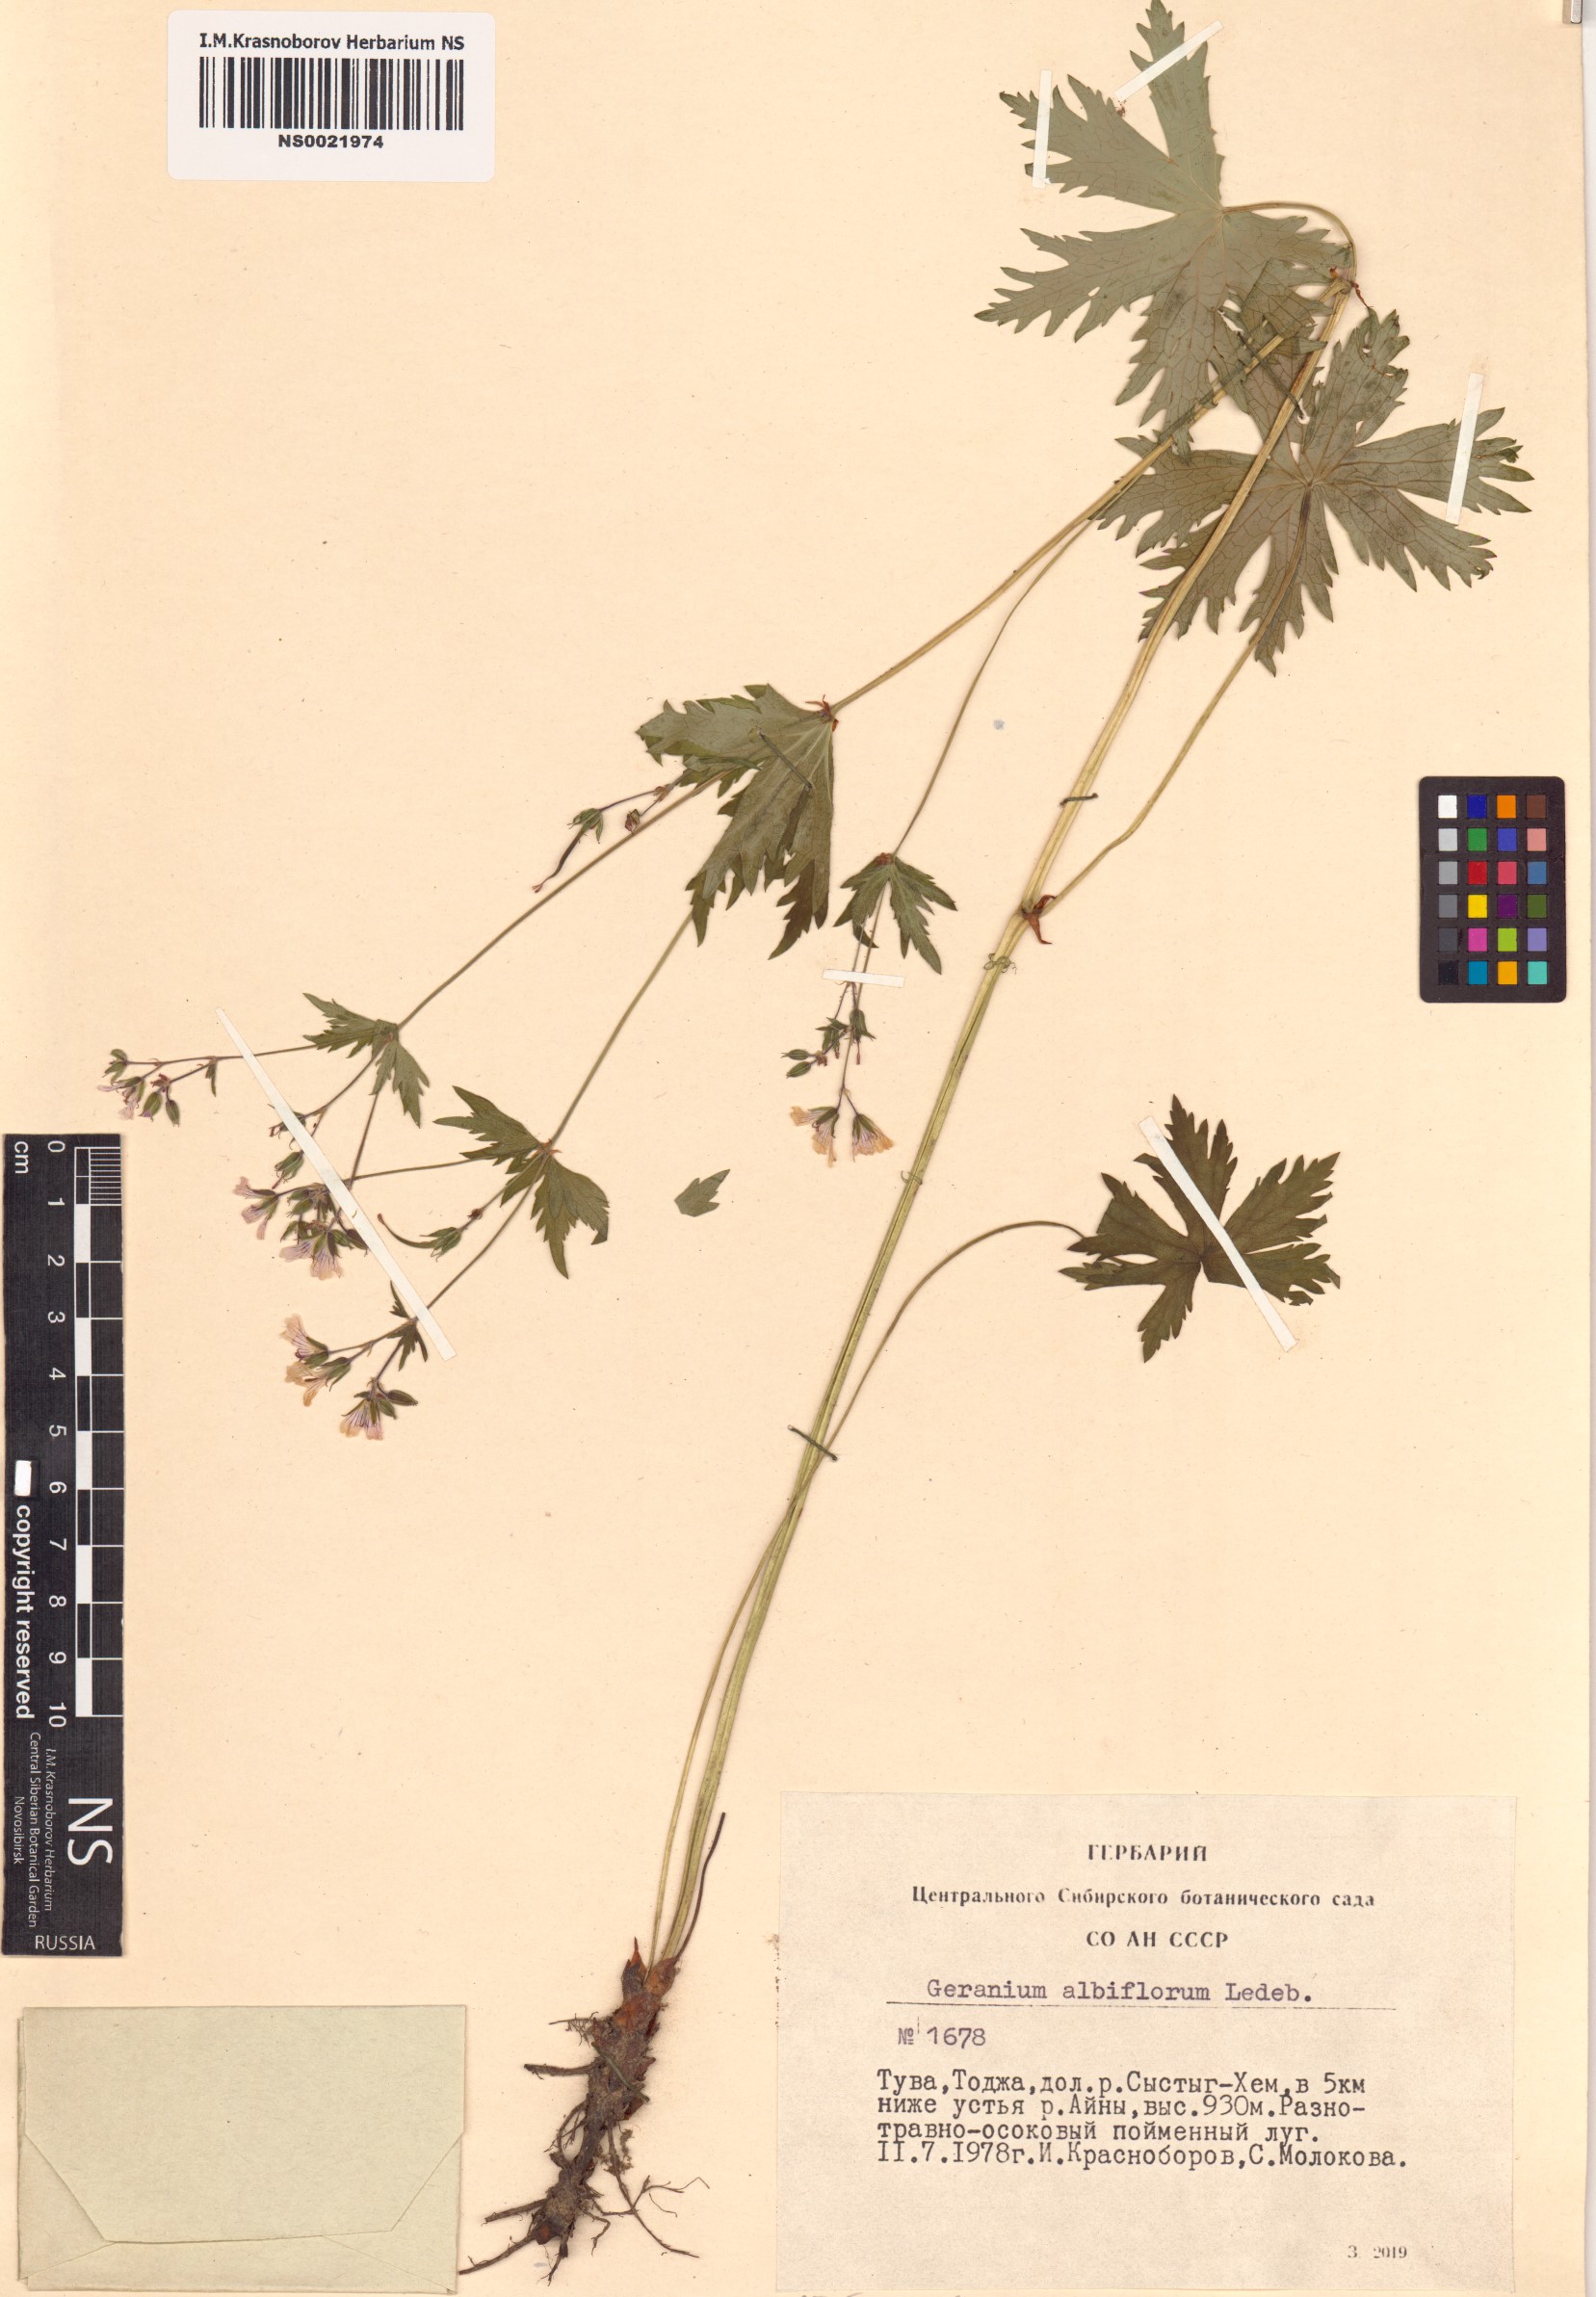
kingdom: Plantae
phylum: Tracheophyta
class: Magnoliopsida
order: Geraniales
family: Geraniaceae
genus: Geranium
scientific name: Geranium albiflorum
